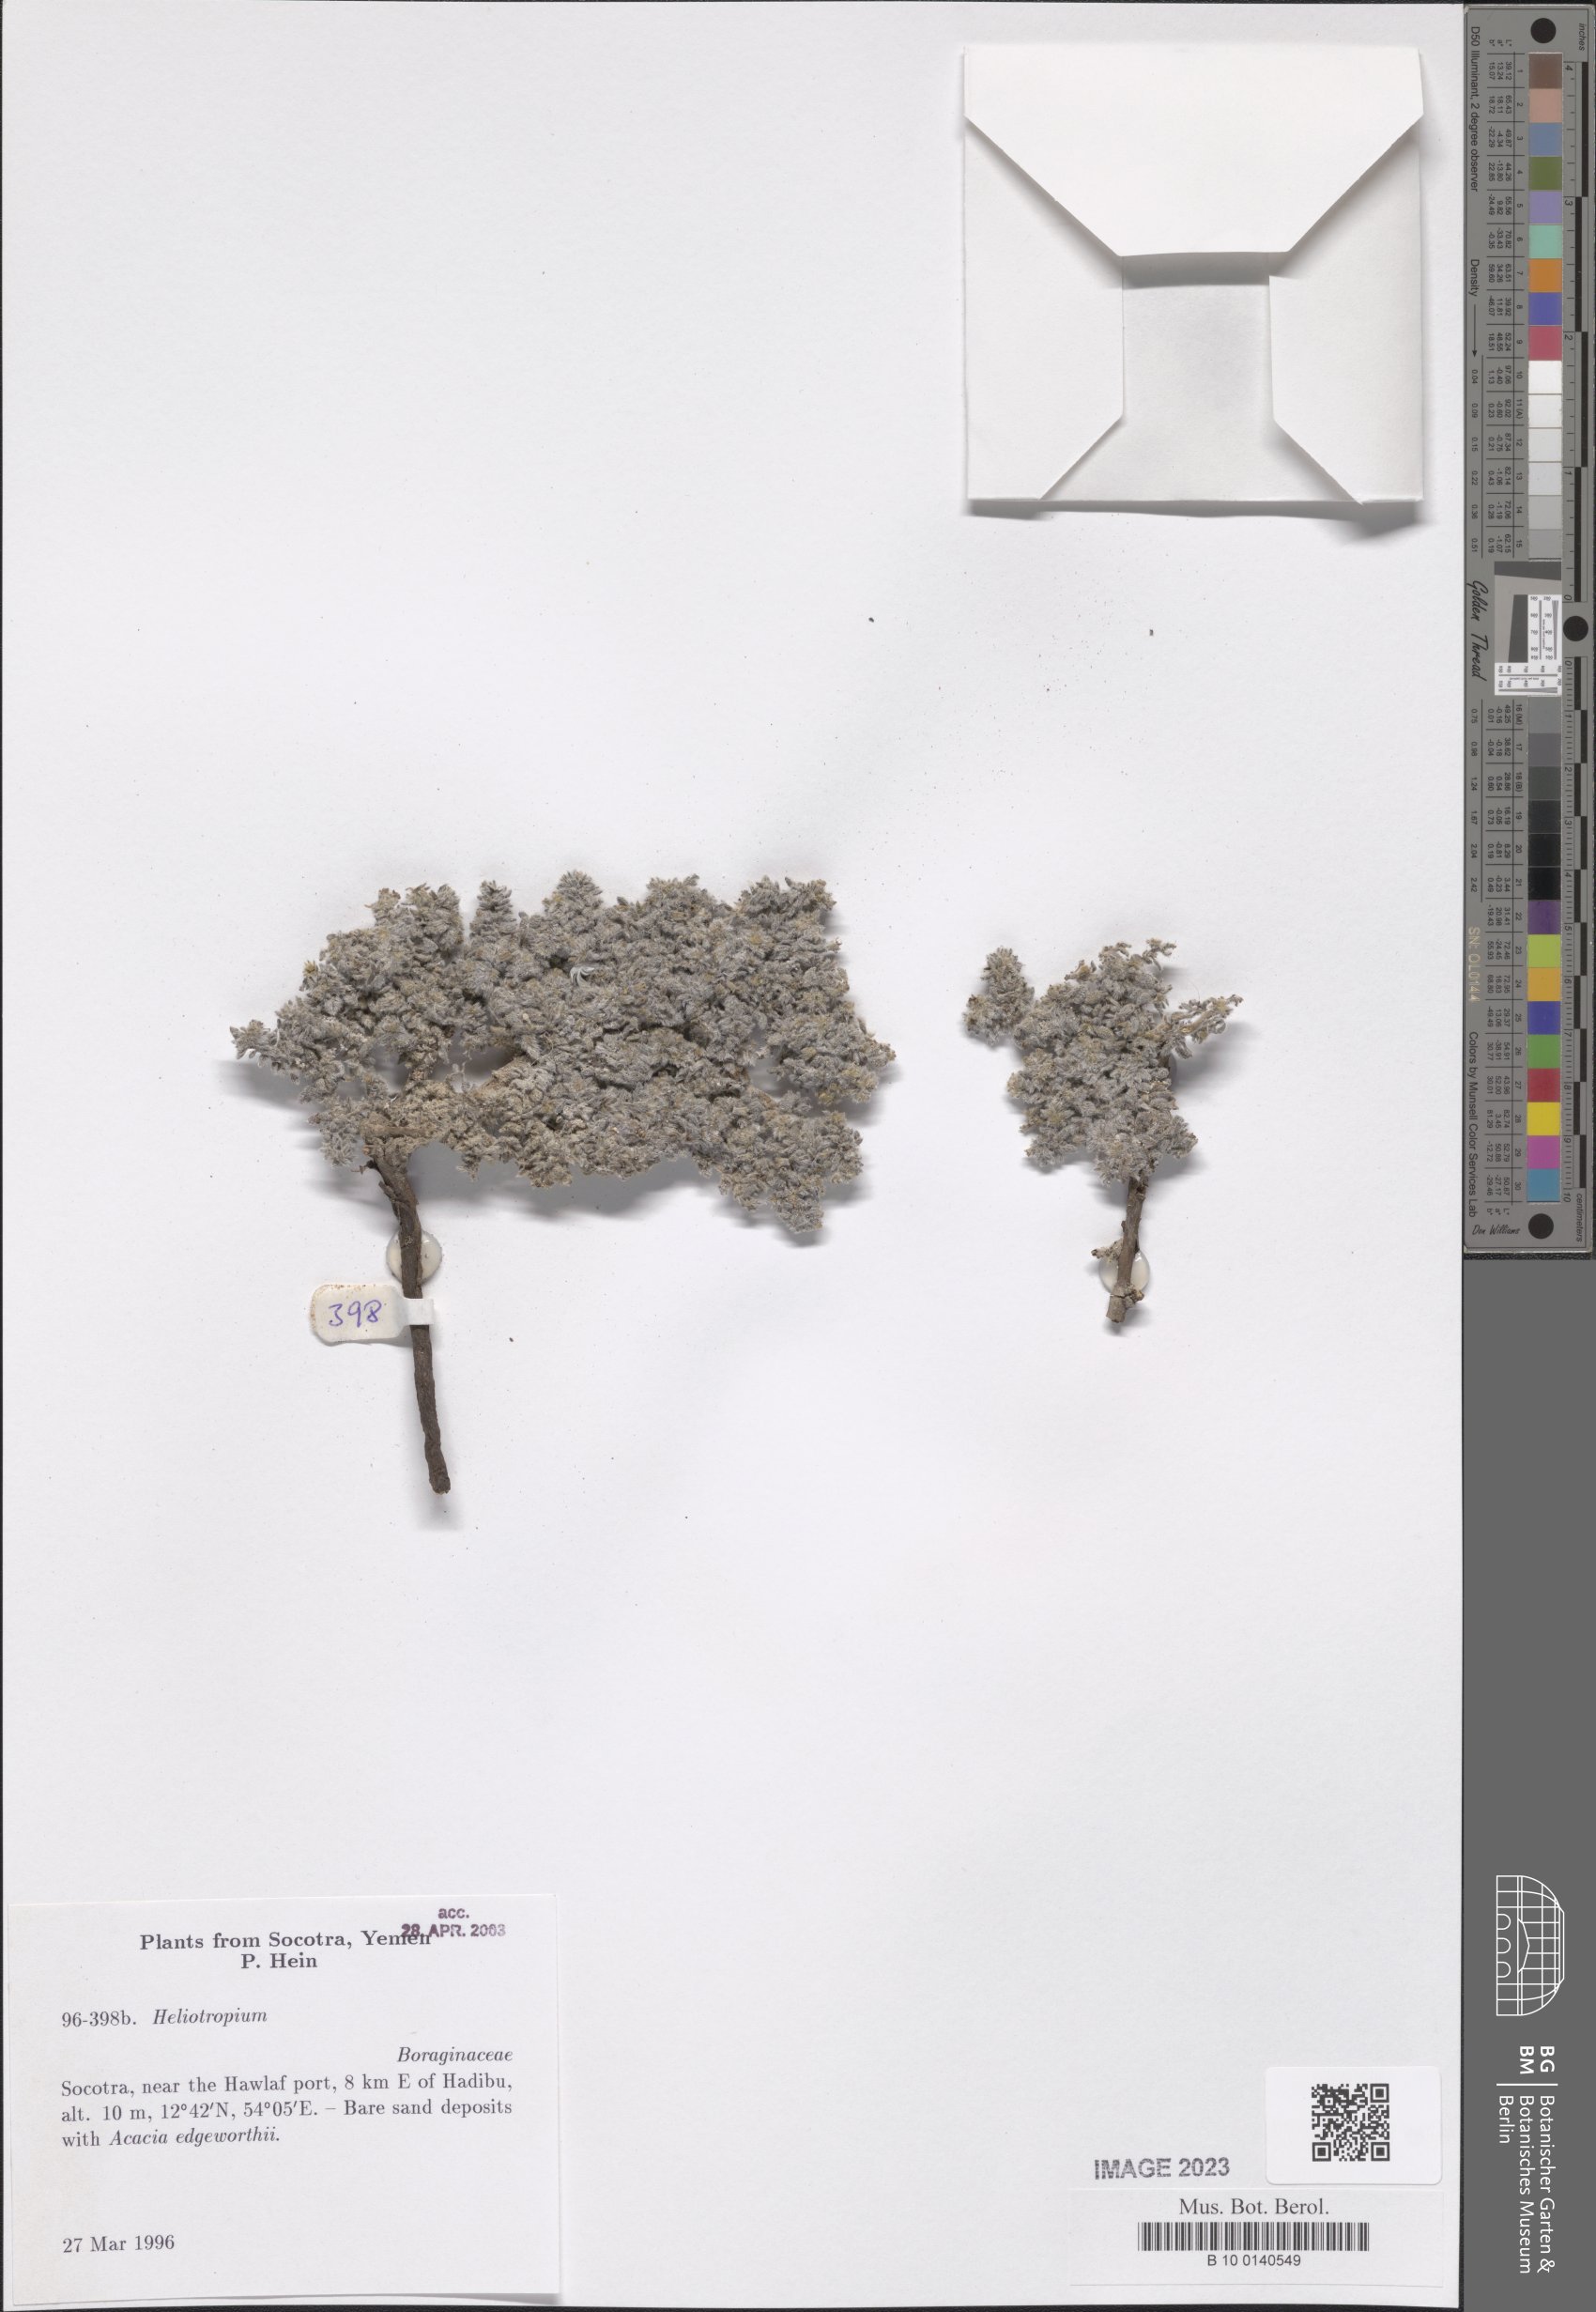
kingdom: Plantae
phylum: Tracheophyta
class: Magnoliopsida
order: Boraginales
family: Heliotropiaceae
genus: Heliotropium
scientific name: Heliotropium
